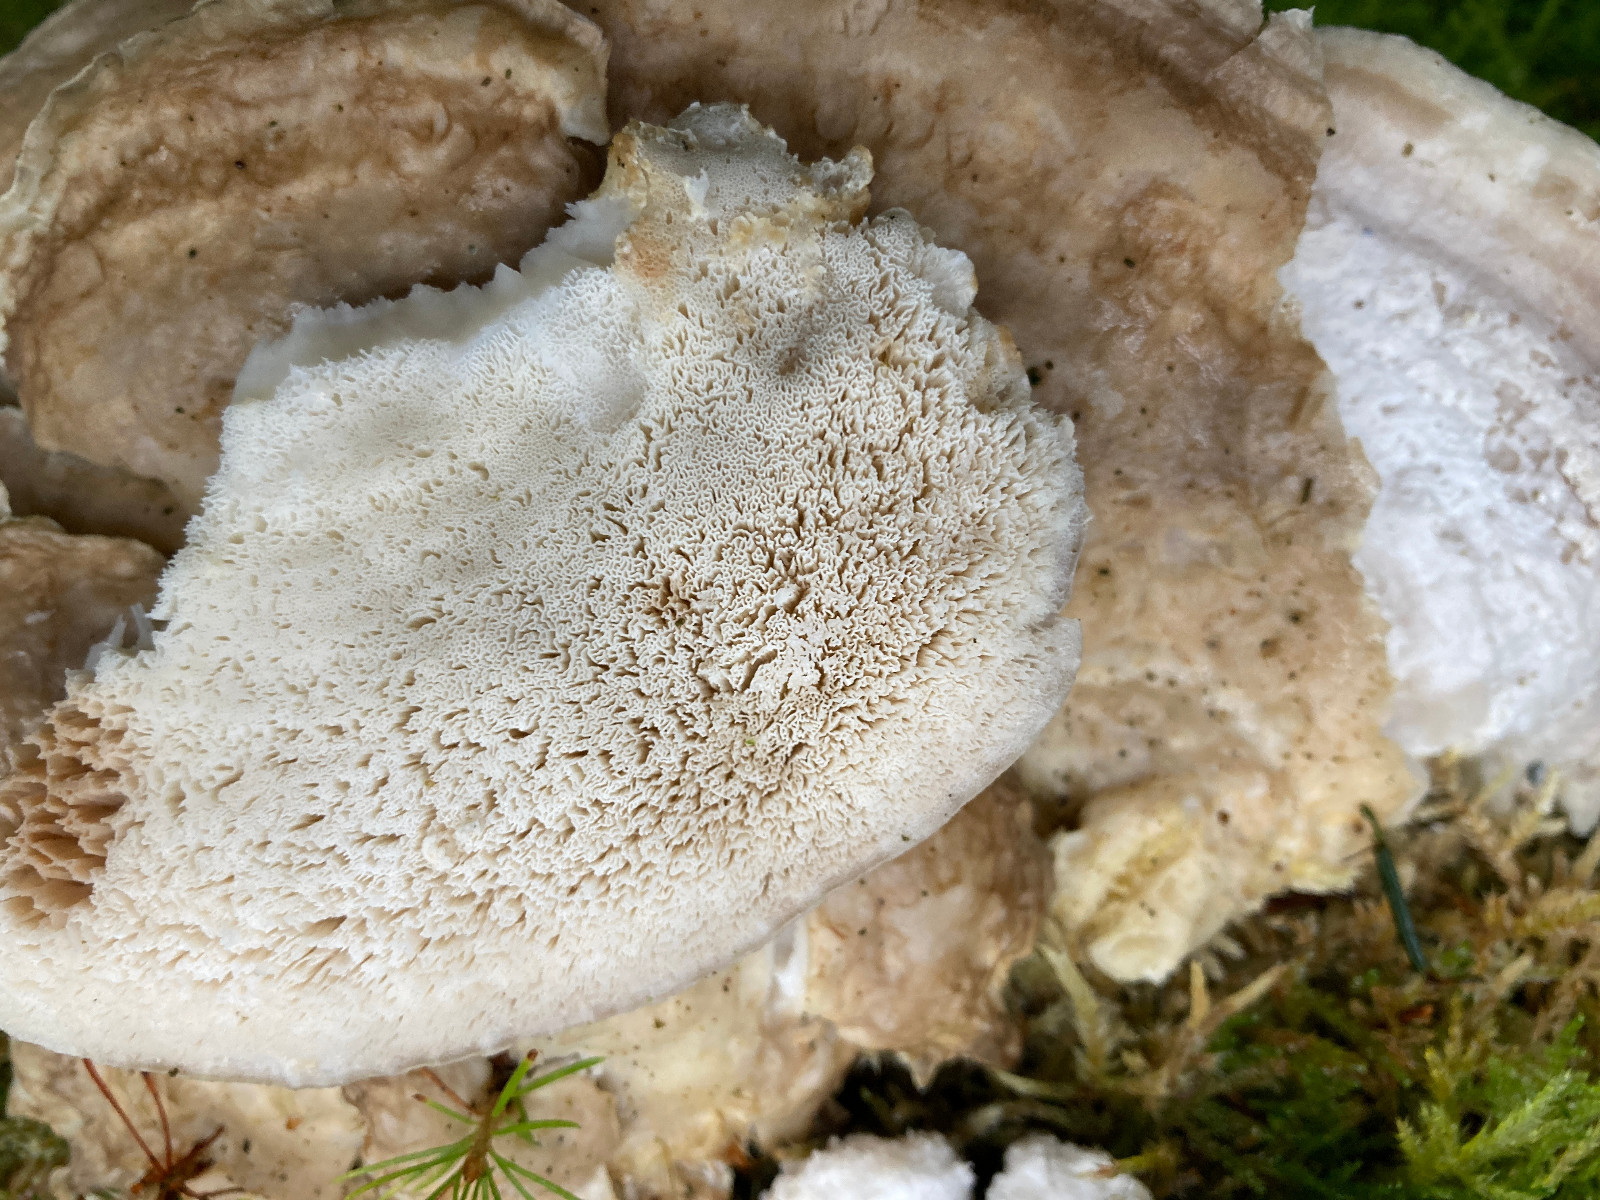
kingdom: Fungi
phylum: Basidiomycota
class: Agaricomycetes
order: Polyporales
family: Polyporaceae
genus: Trametes
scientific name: Trametes gibbosa
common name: puklet læderporesvamp
